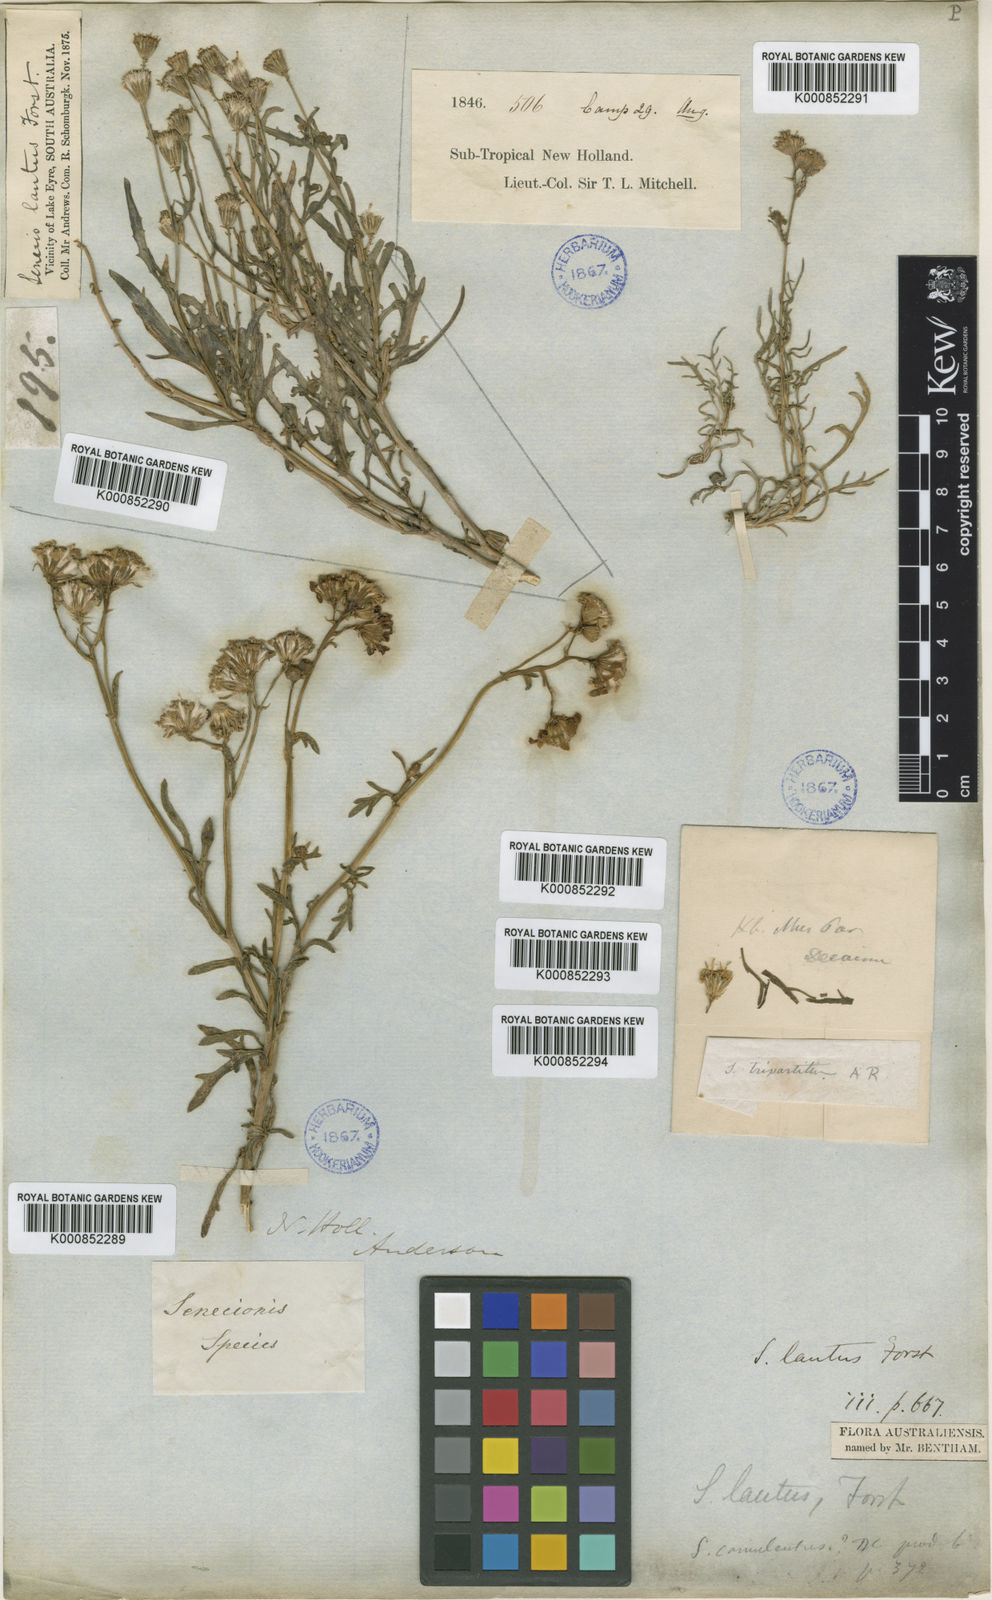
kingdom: Plantae
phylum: Tracheophyta
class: Magnoliopsida
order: Asterales
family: Asteraceae
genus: Senecio
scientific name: Senecio
